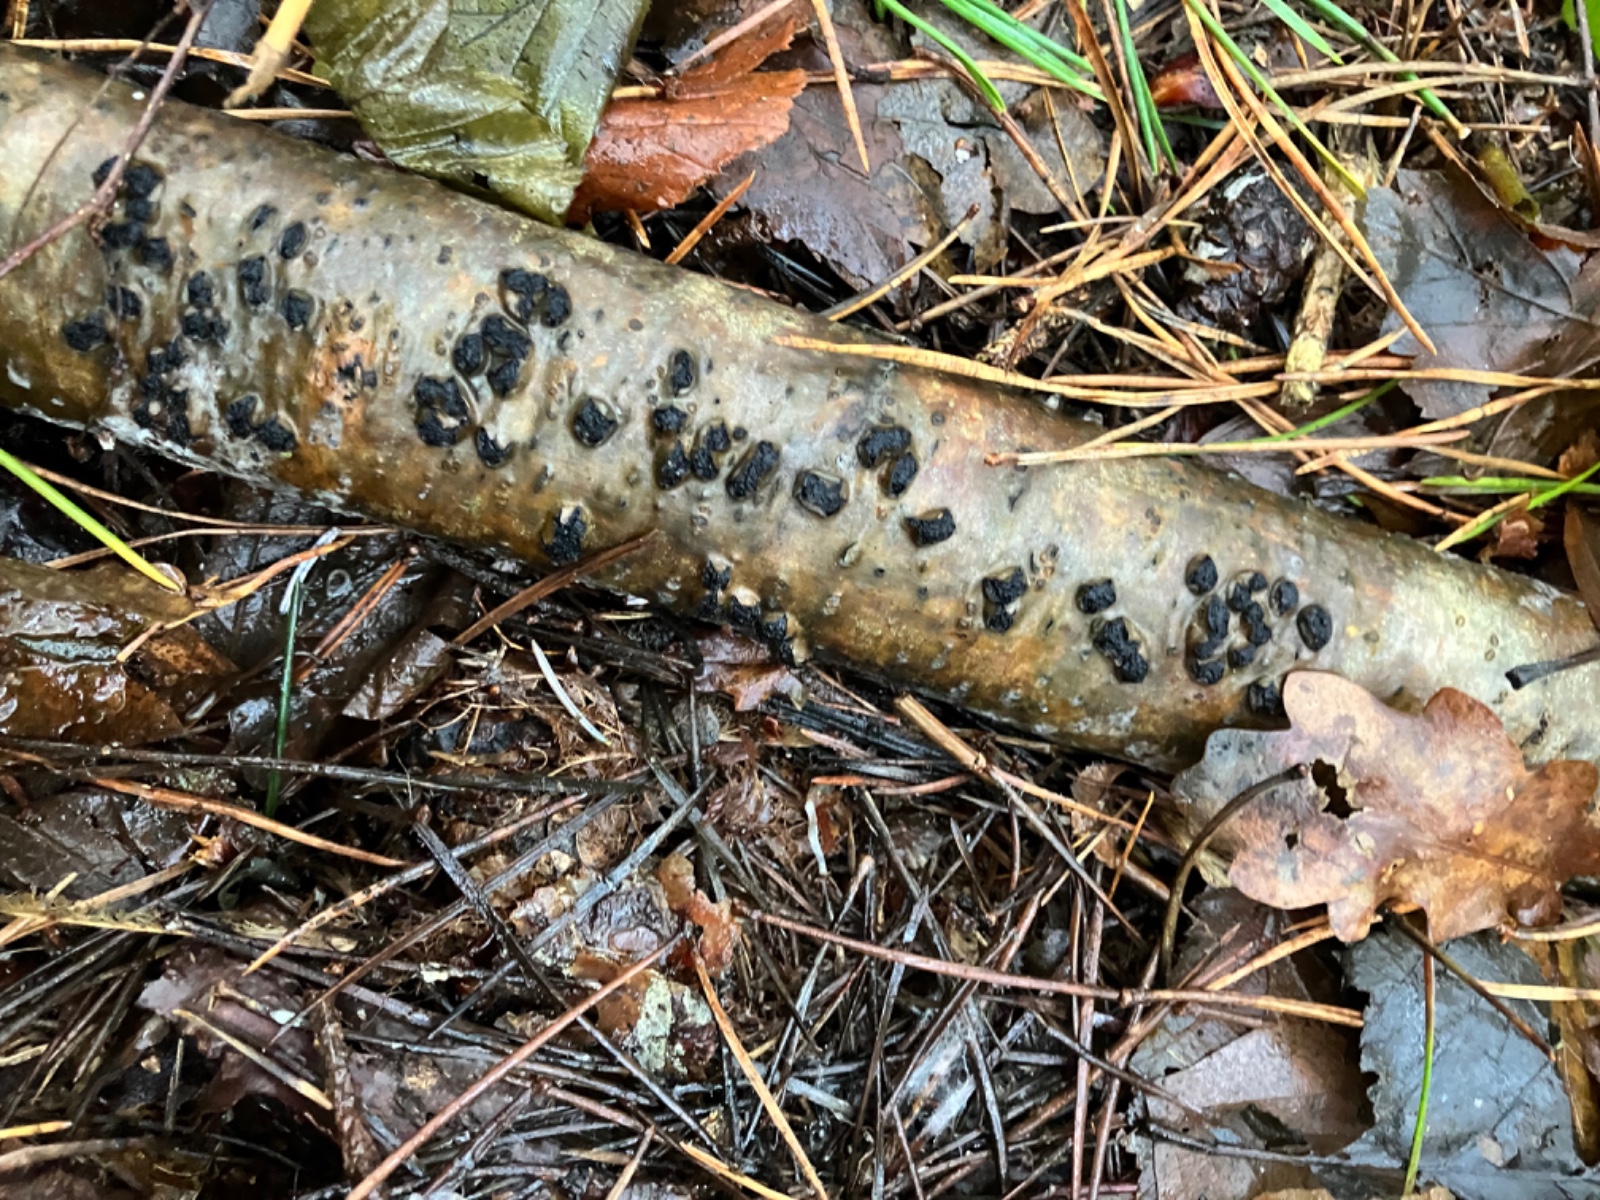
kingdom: Fungi
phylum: Ascomycota
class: Sordariomycetes
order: Xylariales
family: Hypoxylaceae
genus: Jackrogersella
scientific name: Jackrogersella multiformis
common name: foranderlig kulbær
